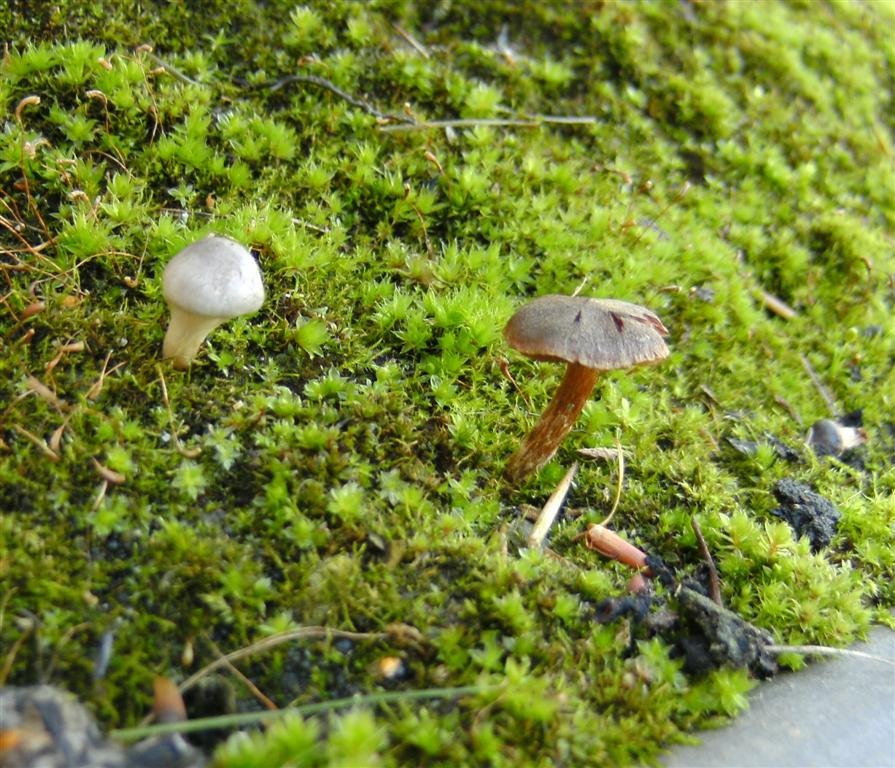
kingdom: Fungi
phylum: Basidiomycota
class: Agaricomycetes
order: Agaricales
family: Hymenogastraceae
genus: Hebeloma
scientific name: Hebeloma mesophaeum
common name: lerbrun tåreblad
